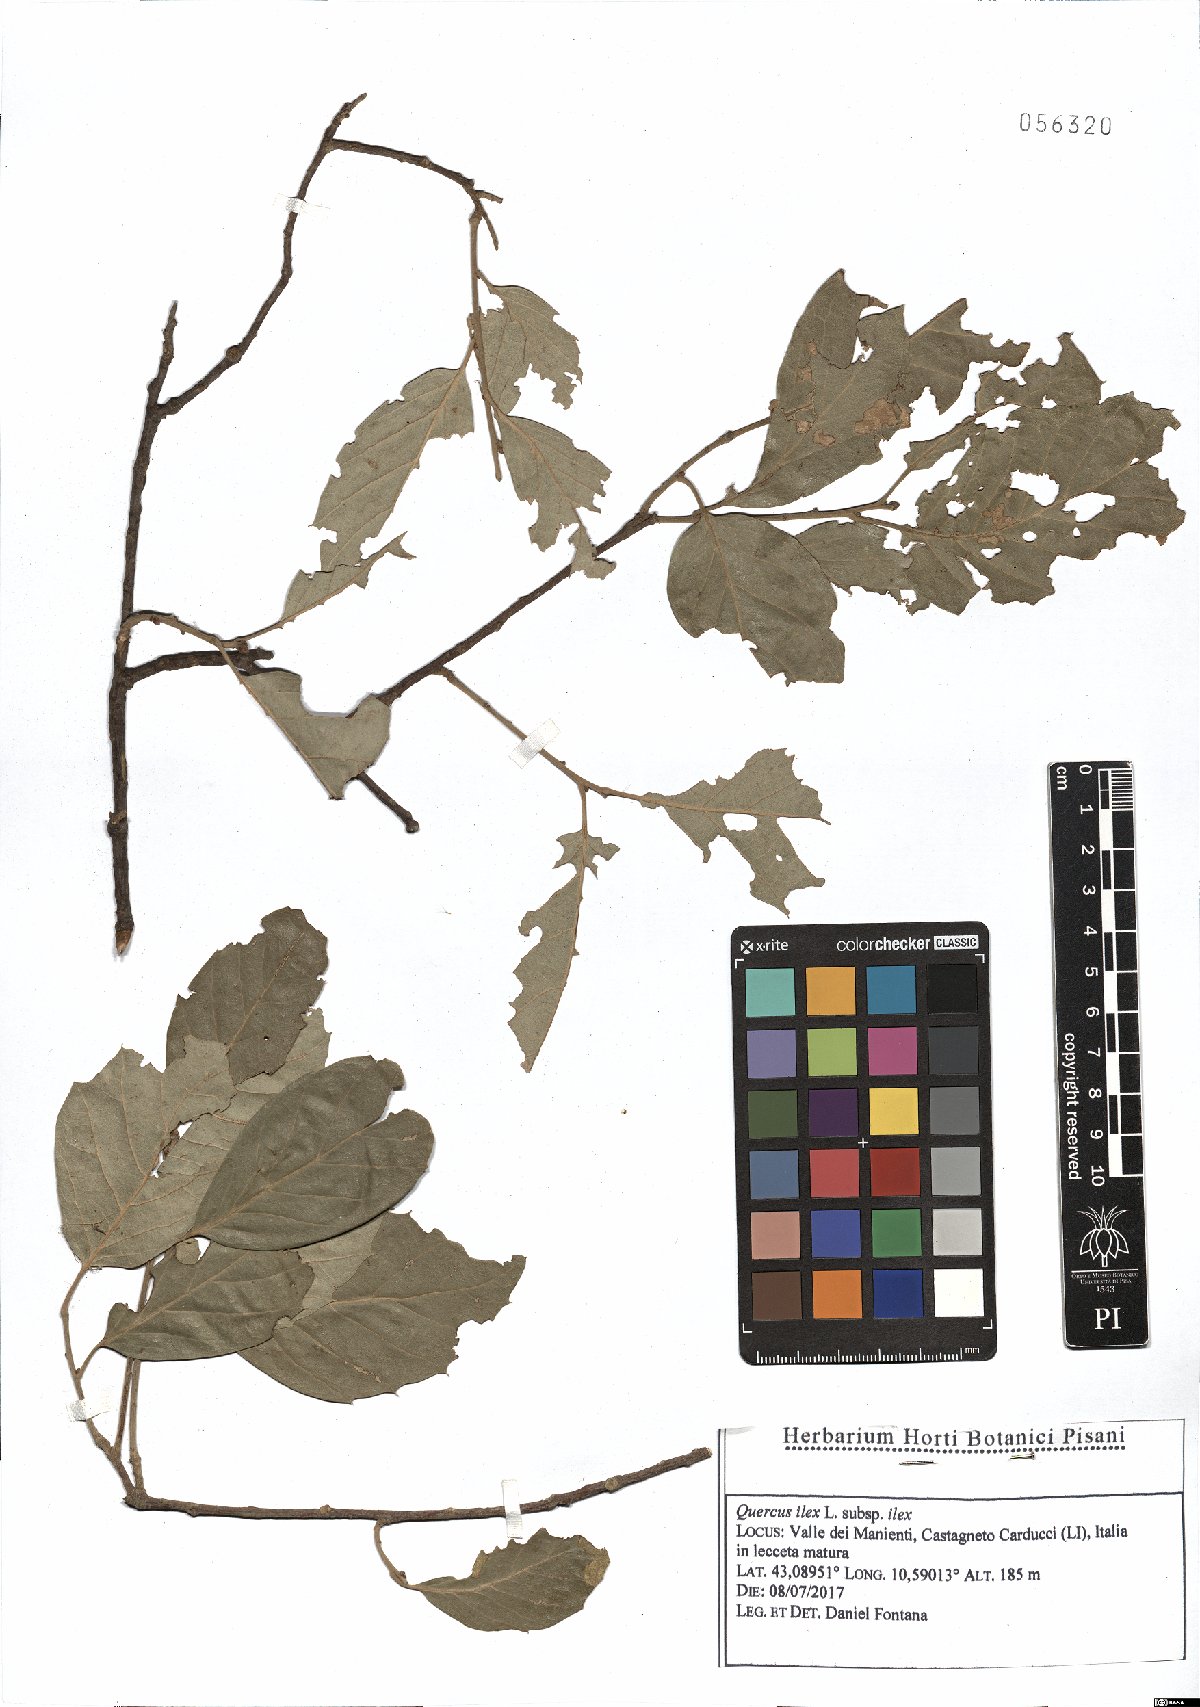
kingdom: Plantae
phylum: Tracheophyta
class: Magnoliopsida
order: Fagales
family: Fagaceae
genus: Quercus
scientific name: Quercus ilex
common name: Evergreen oak
